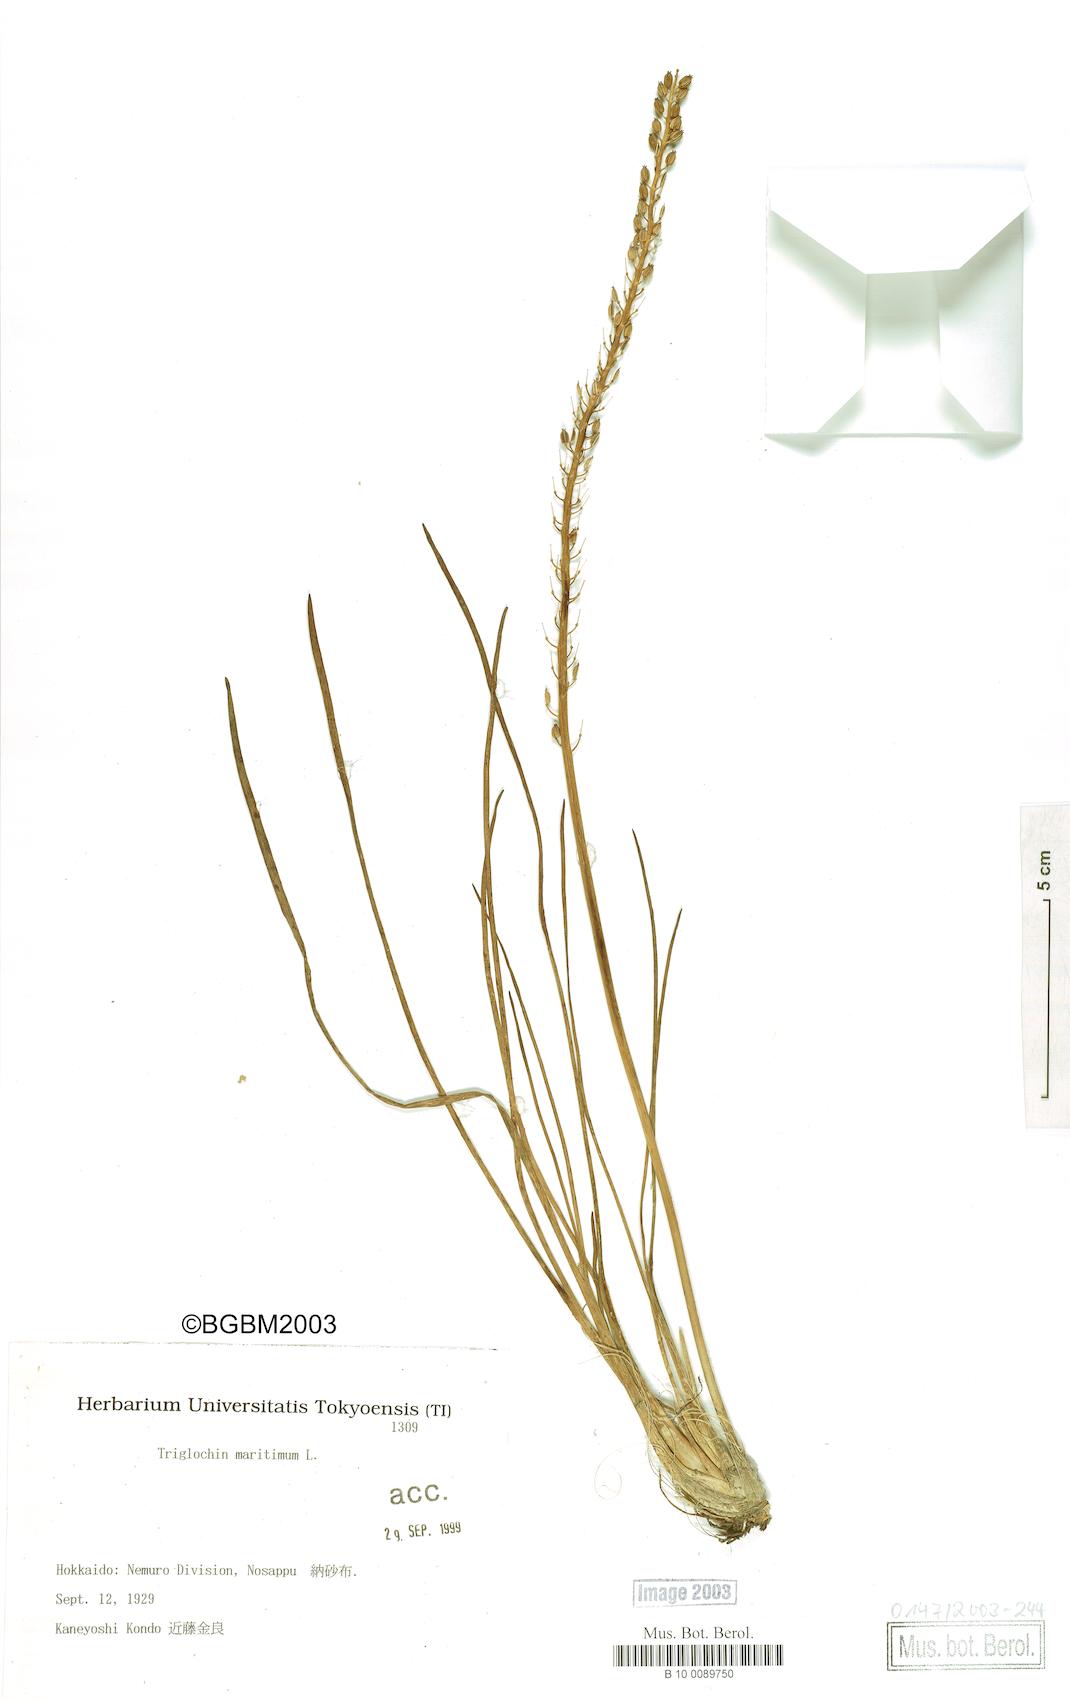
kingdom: Plantae
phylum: Tracheophyta
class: Liliopsida
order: Alismatales
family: Juncaginaceae
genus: Triglochin
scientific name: Triglochin maritima
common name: Sea arrowgrass
